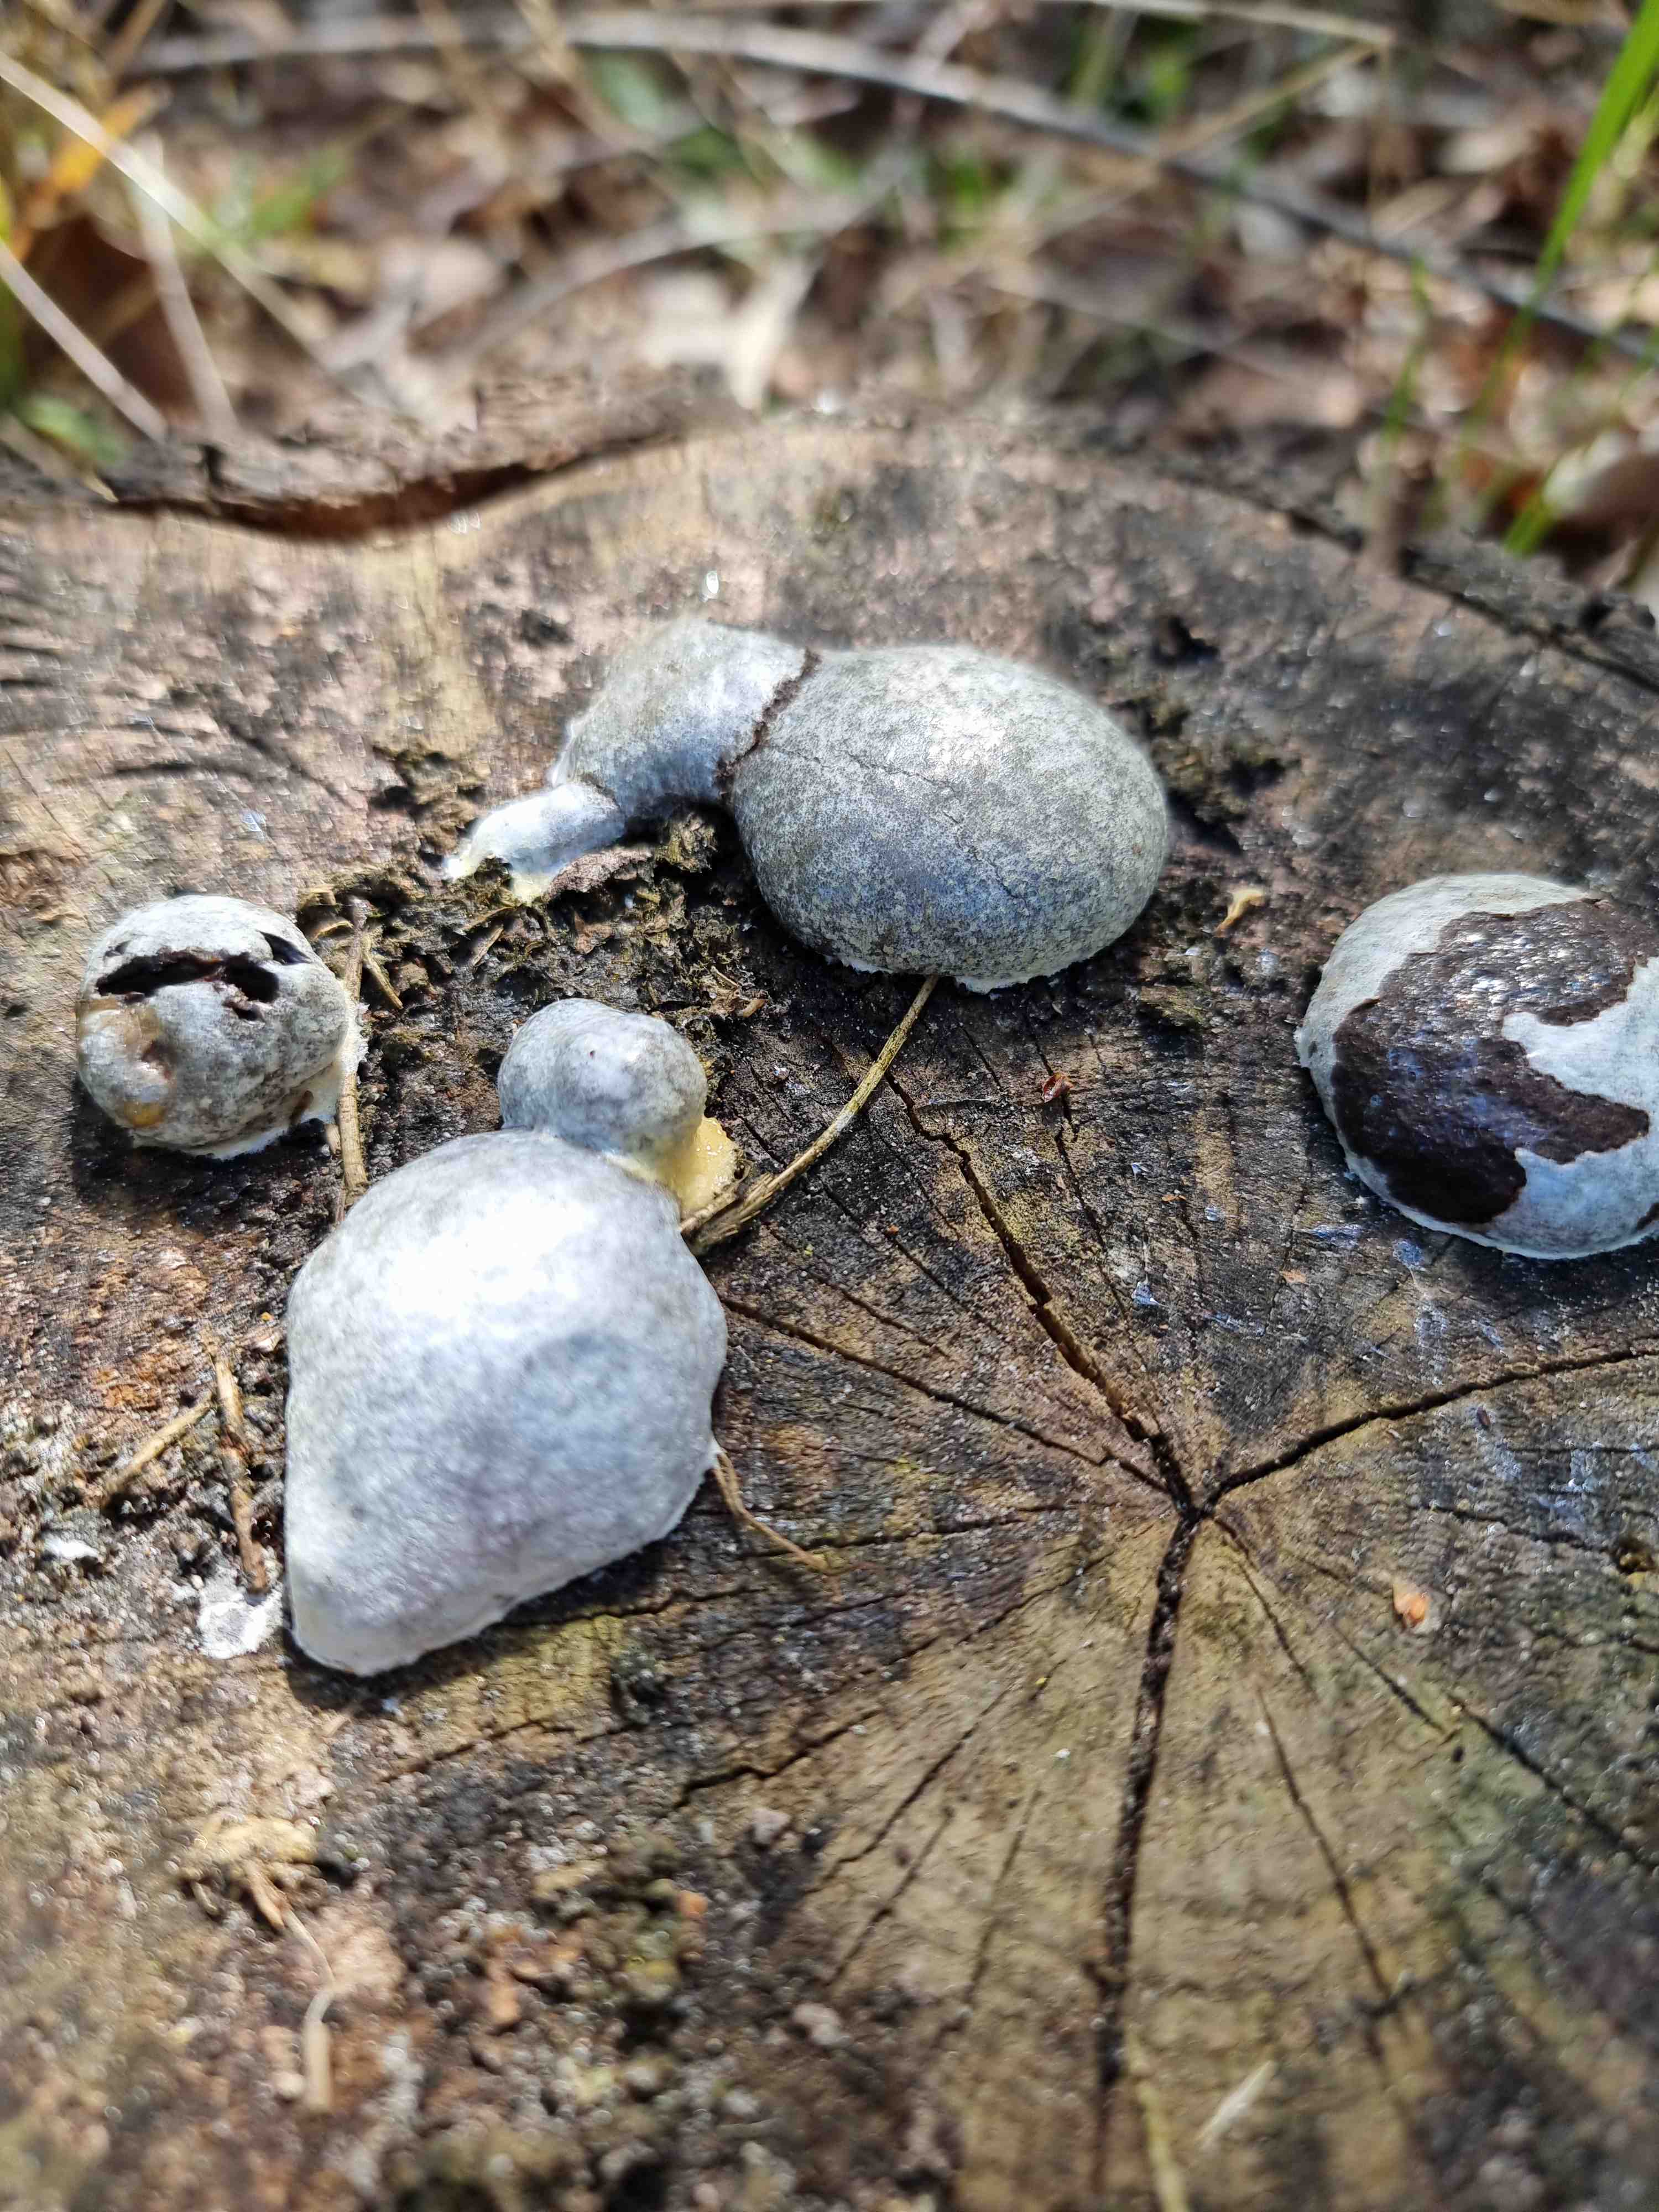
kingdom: Protozoa
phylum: Mycetozoa
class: Myxomycetes
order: Cribrariales
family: Tubiferaceae
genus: Reticularia
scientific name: Reticularia lycoperdon
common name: skinnende støvpude
